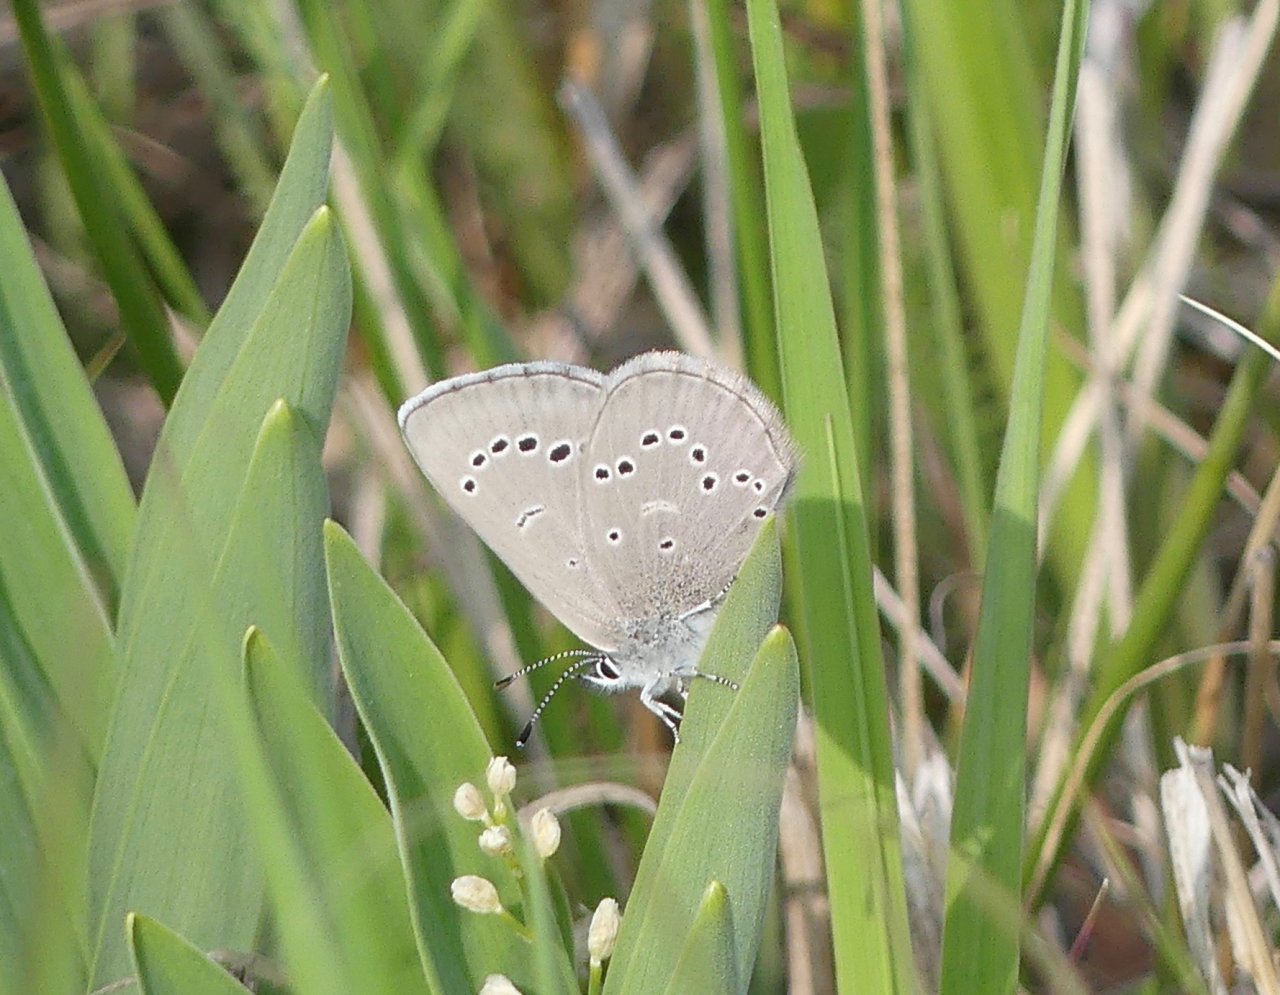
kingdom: Animalia
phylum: Arthropoda
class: Insecta
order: Lepidoptera
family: Lycaenidae
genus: Glaucopsyche
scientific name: Glaucopsyche lygdamus
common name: Silvery Blue
